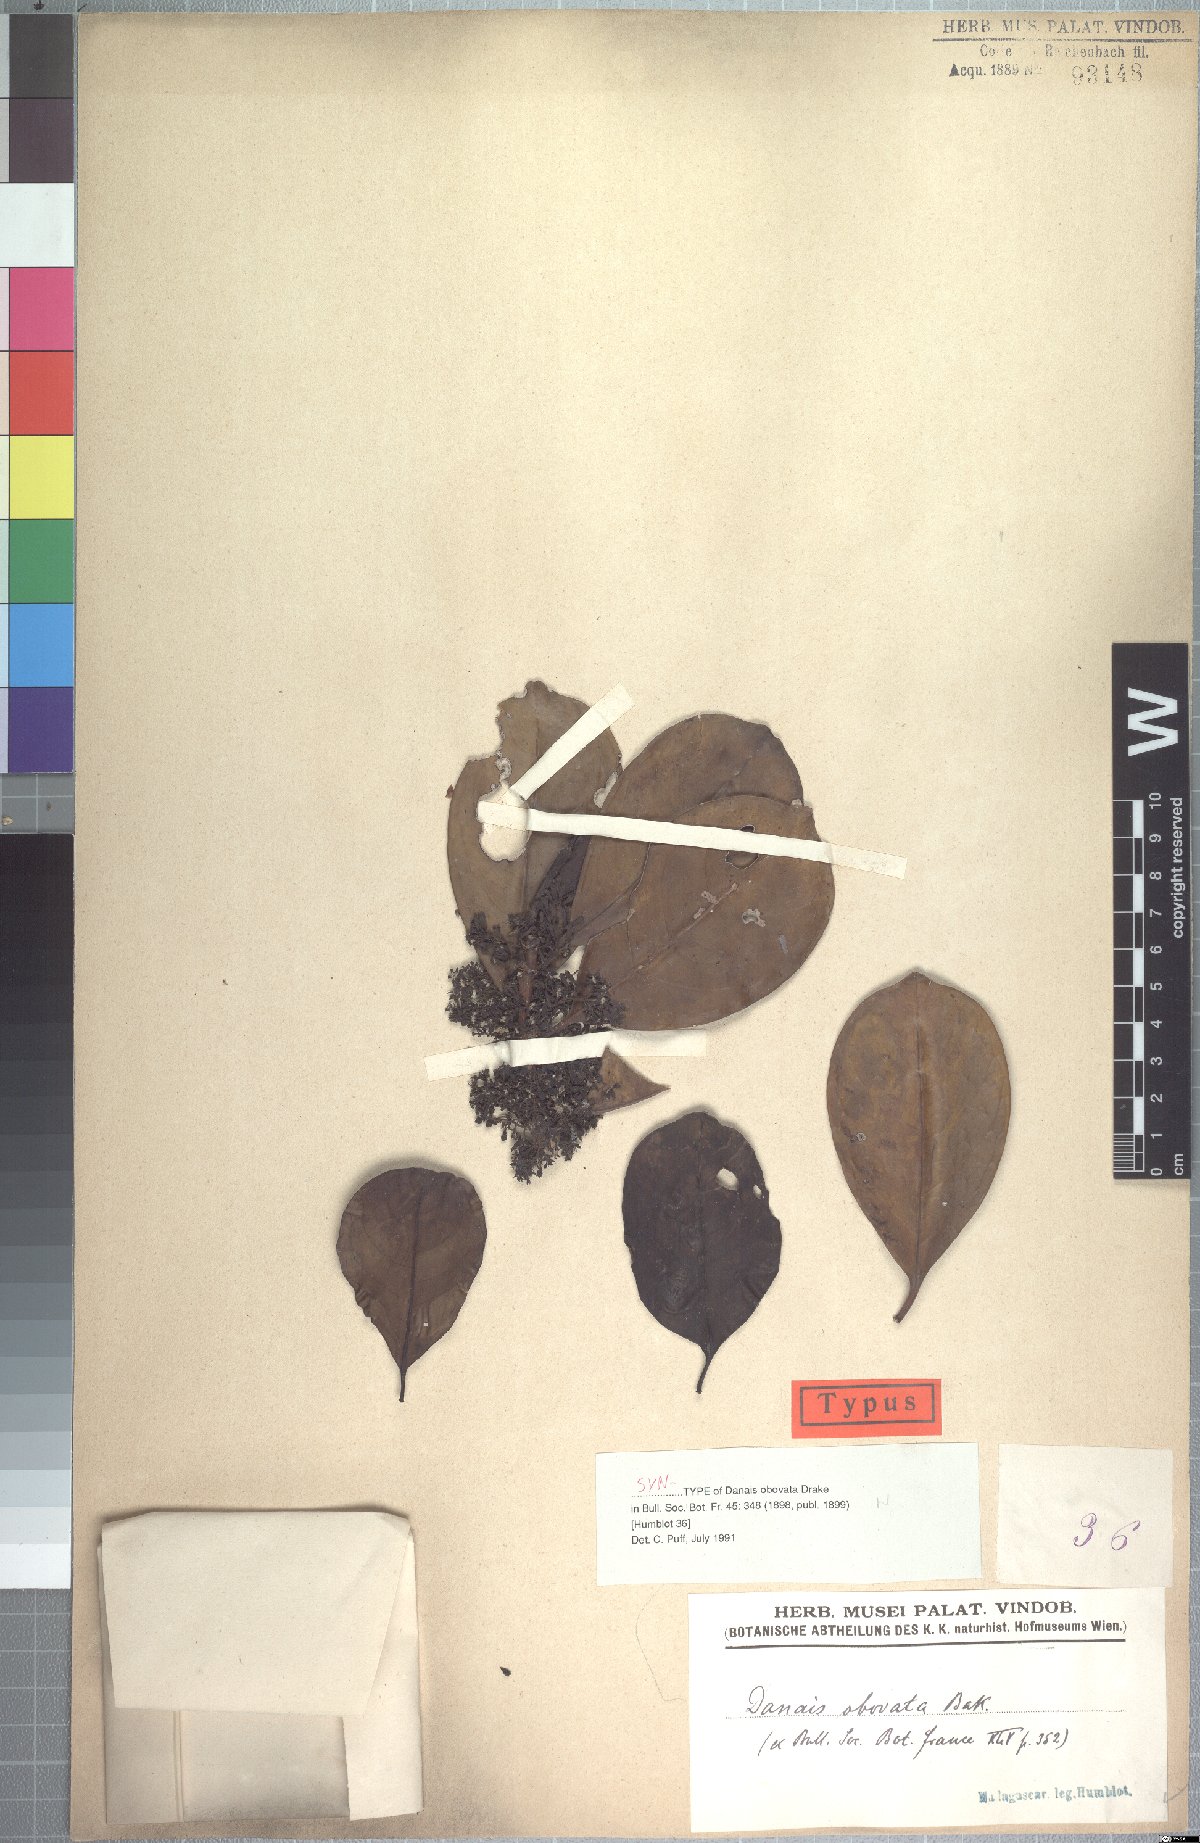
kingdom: Plantae
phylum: Tracheophyta
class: Magnoliopsida
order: Gentianales
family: Rubiaceae
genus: Danais
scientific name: Danais fragrans
